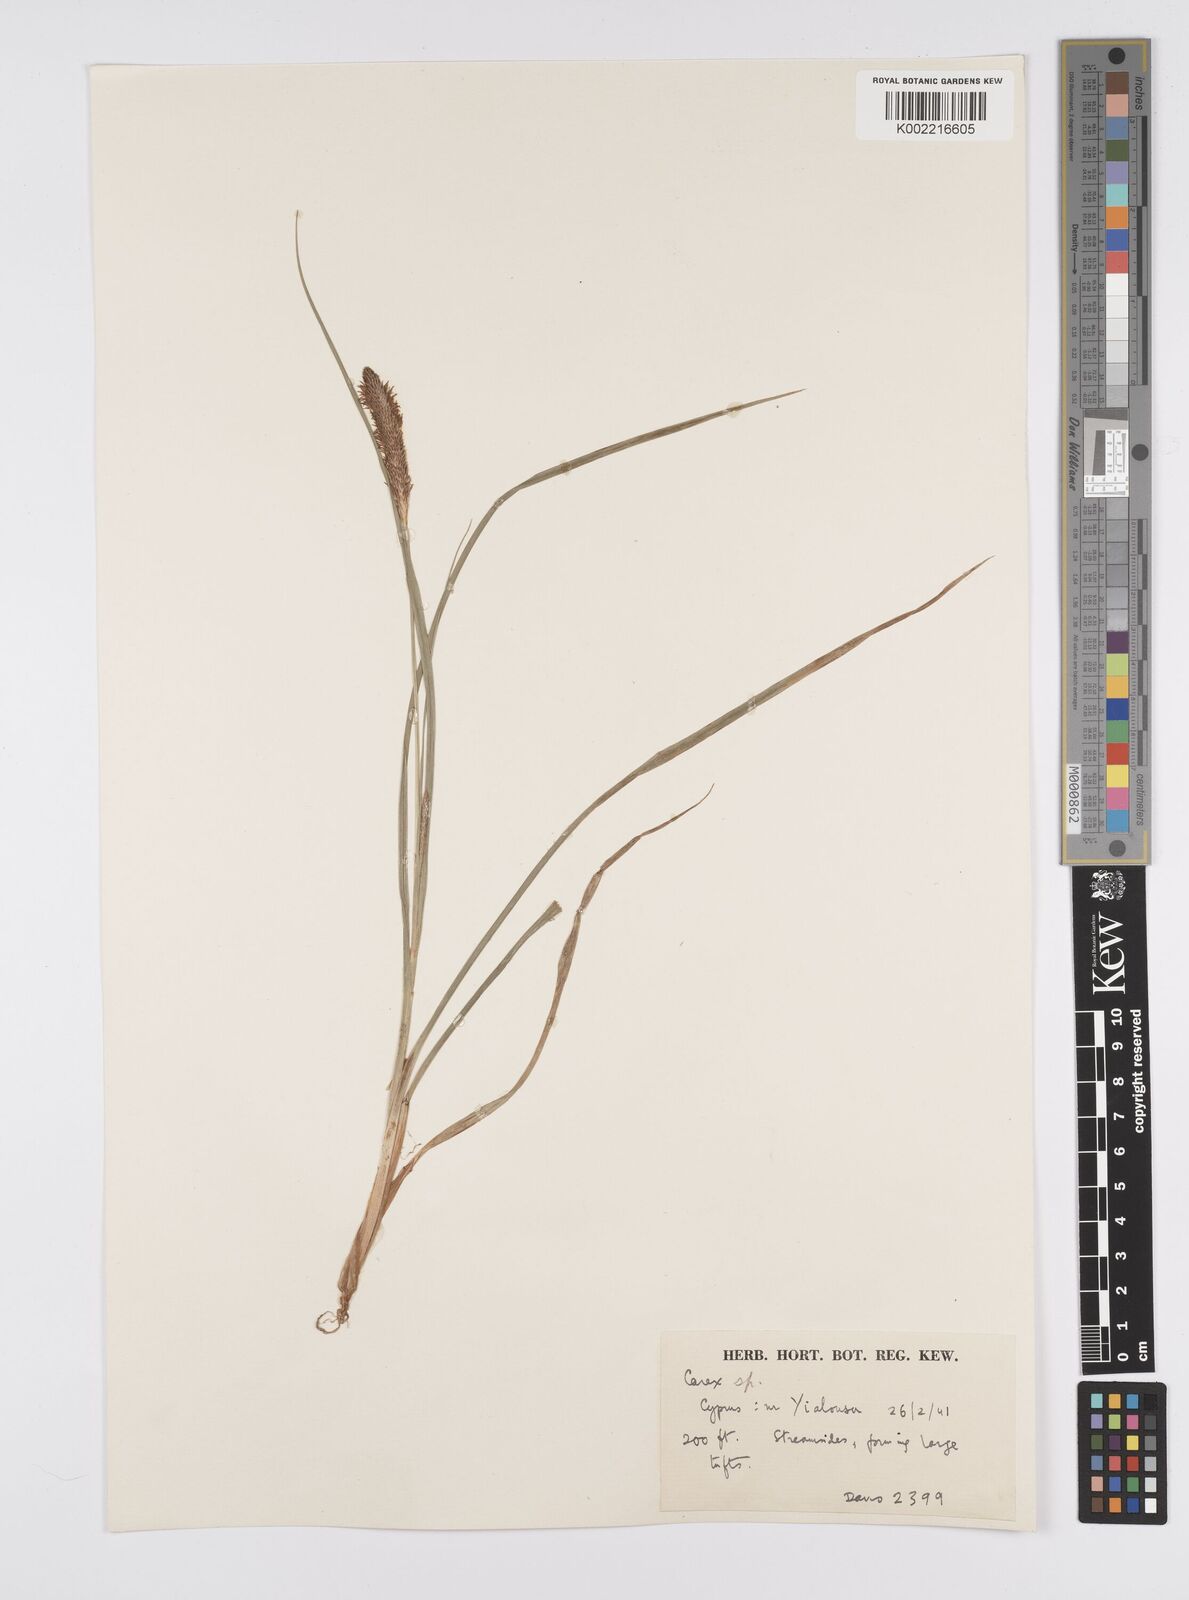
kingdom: Plantae
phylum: Tracheophyta
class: Liliopsida
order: Poales
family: Cyperaceae
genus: Carex
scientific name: Carex hispida
